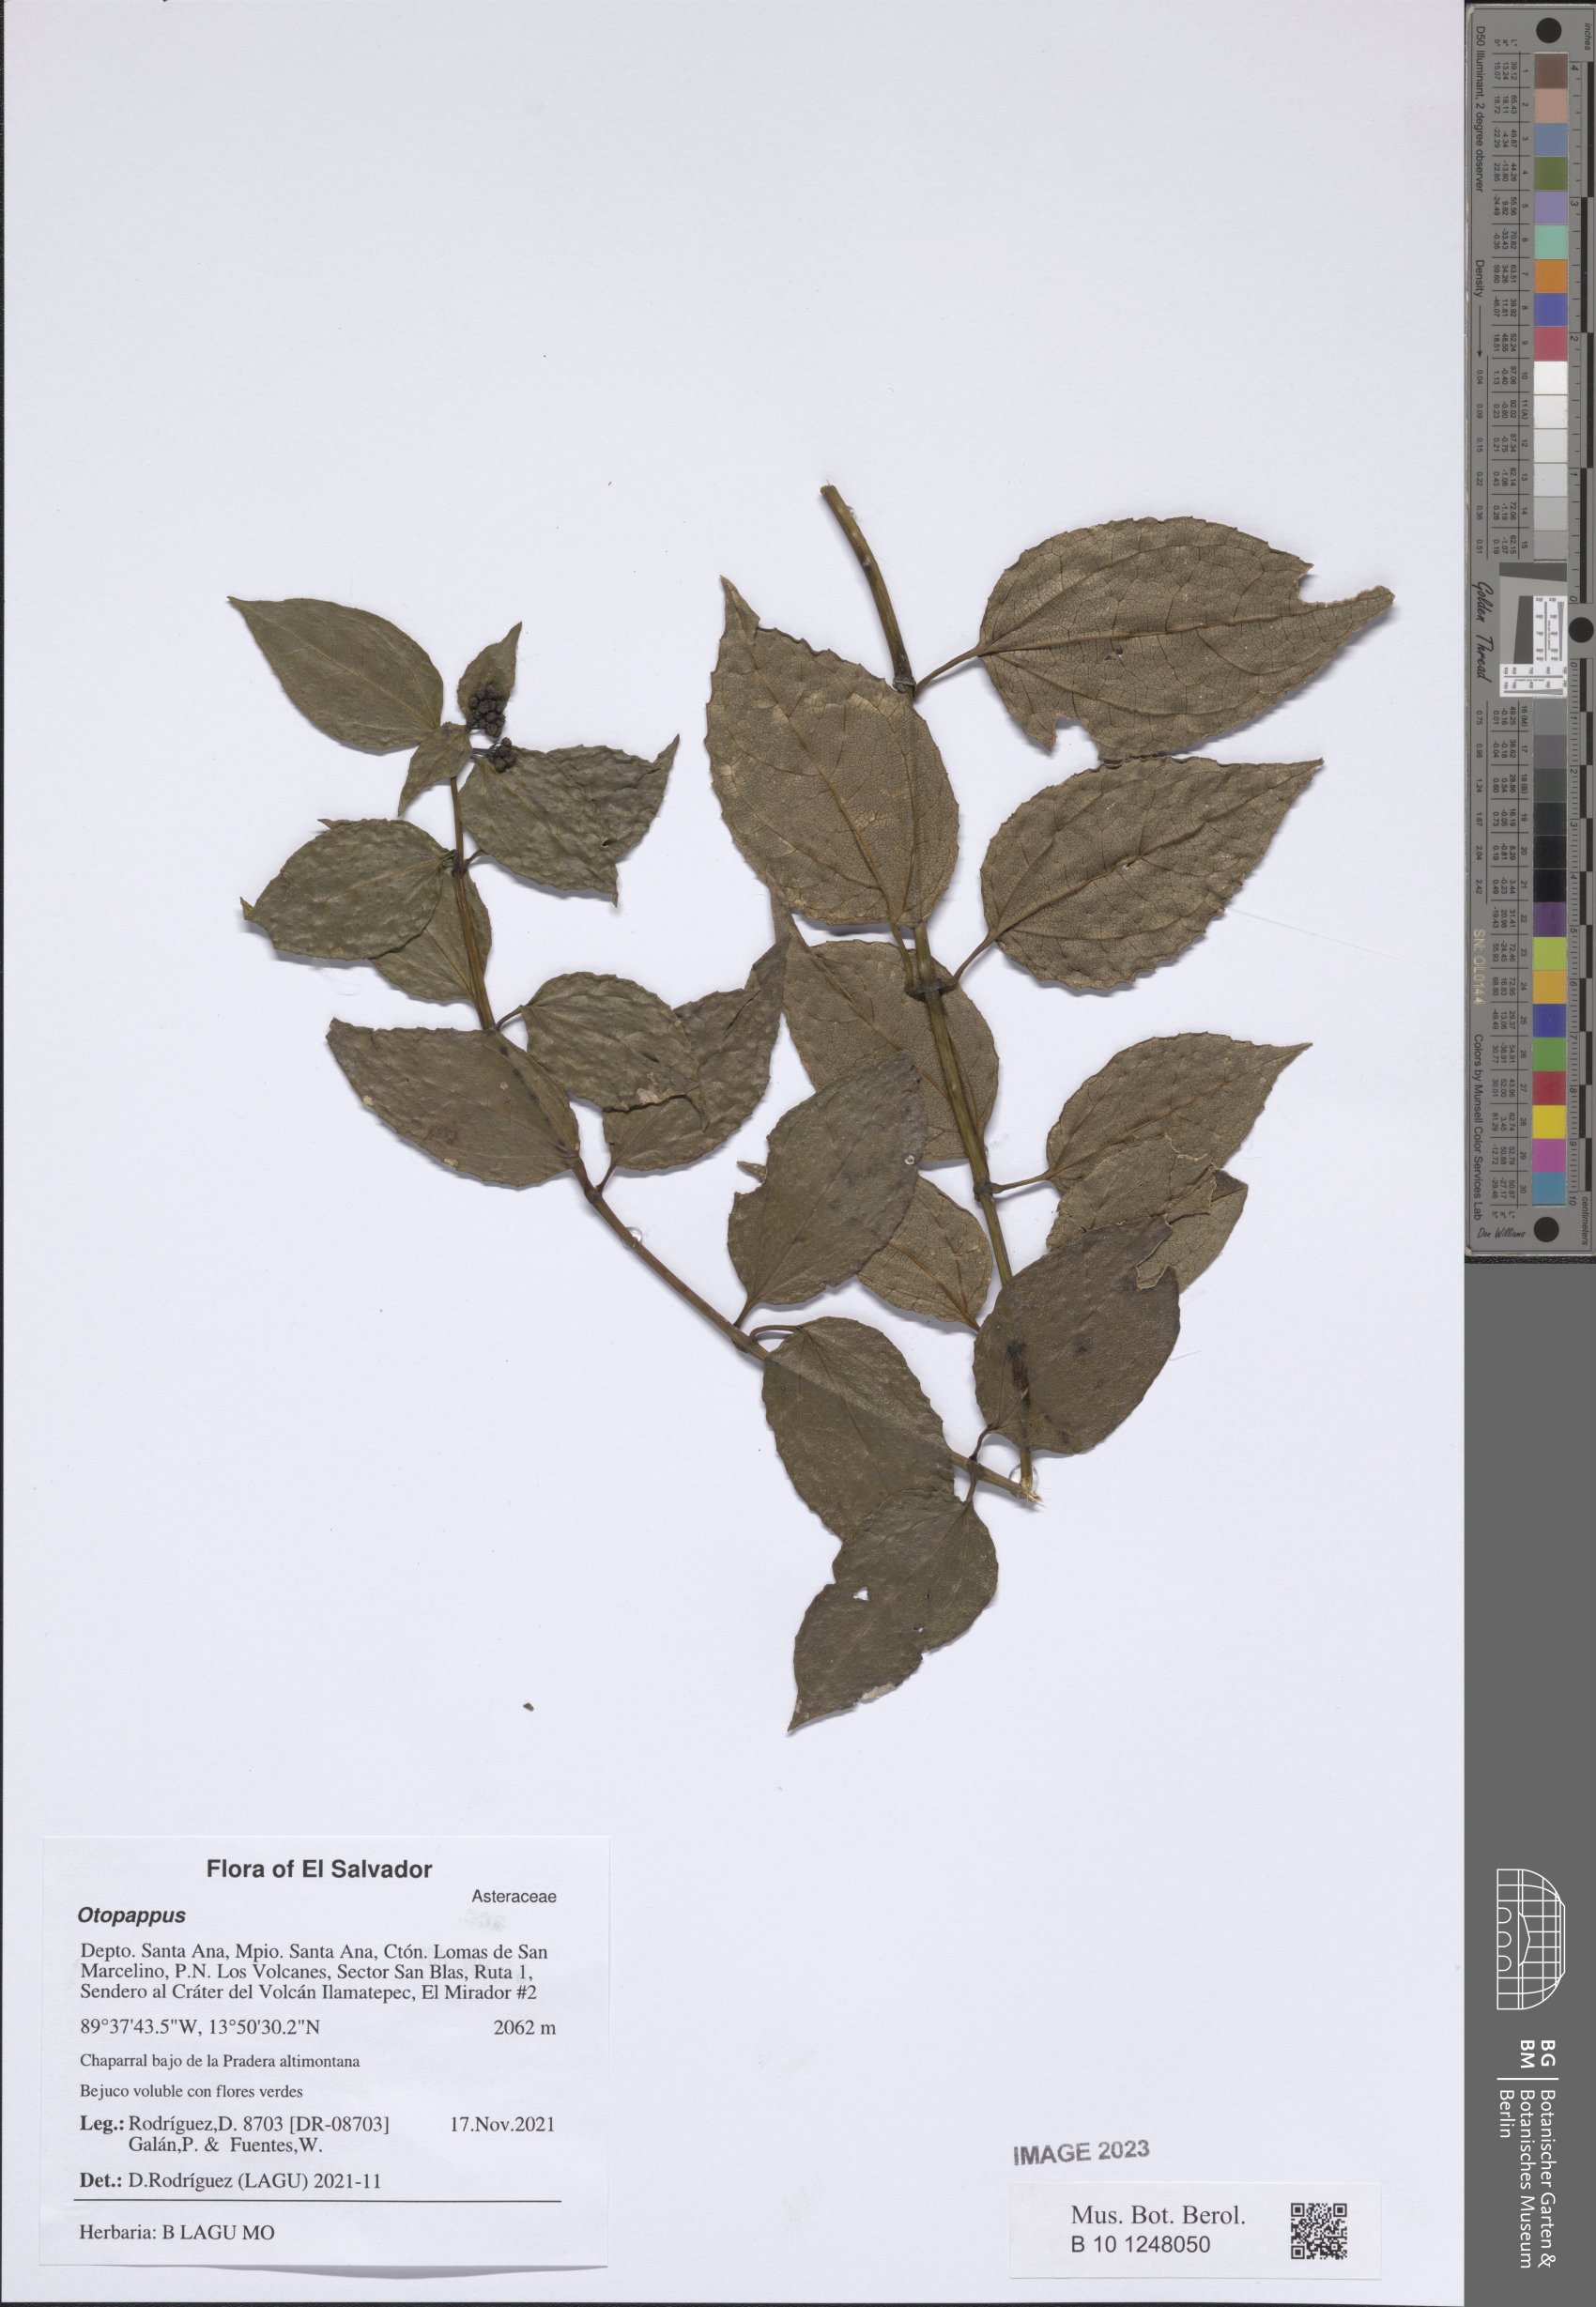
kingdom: Plantae
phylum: Tracheophyta
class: Magnoliopsida
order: Asterales
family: Asteraceae
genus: Otopappus
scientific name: Otopappus
